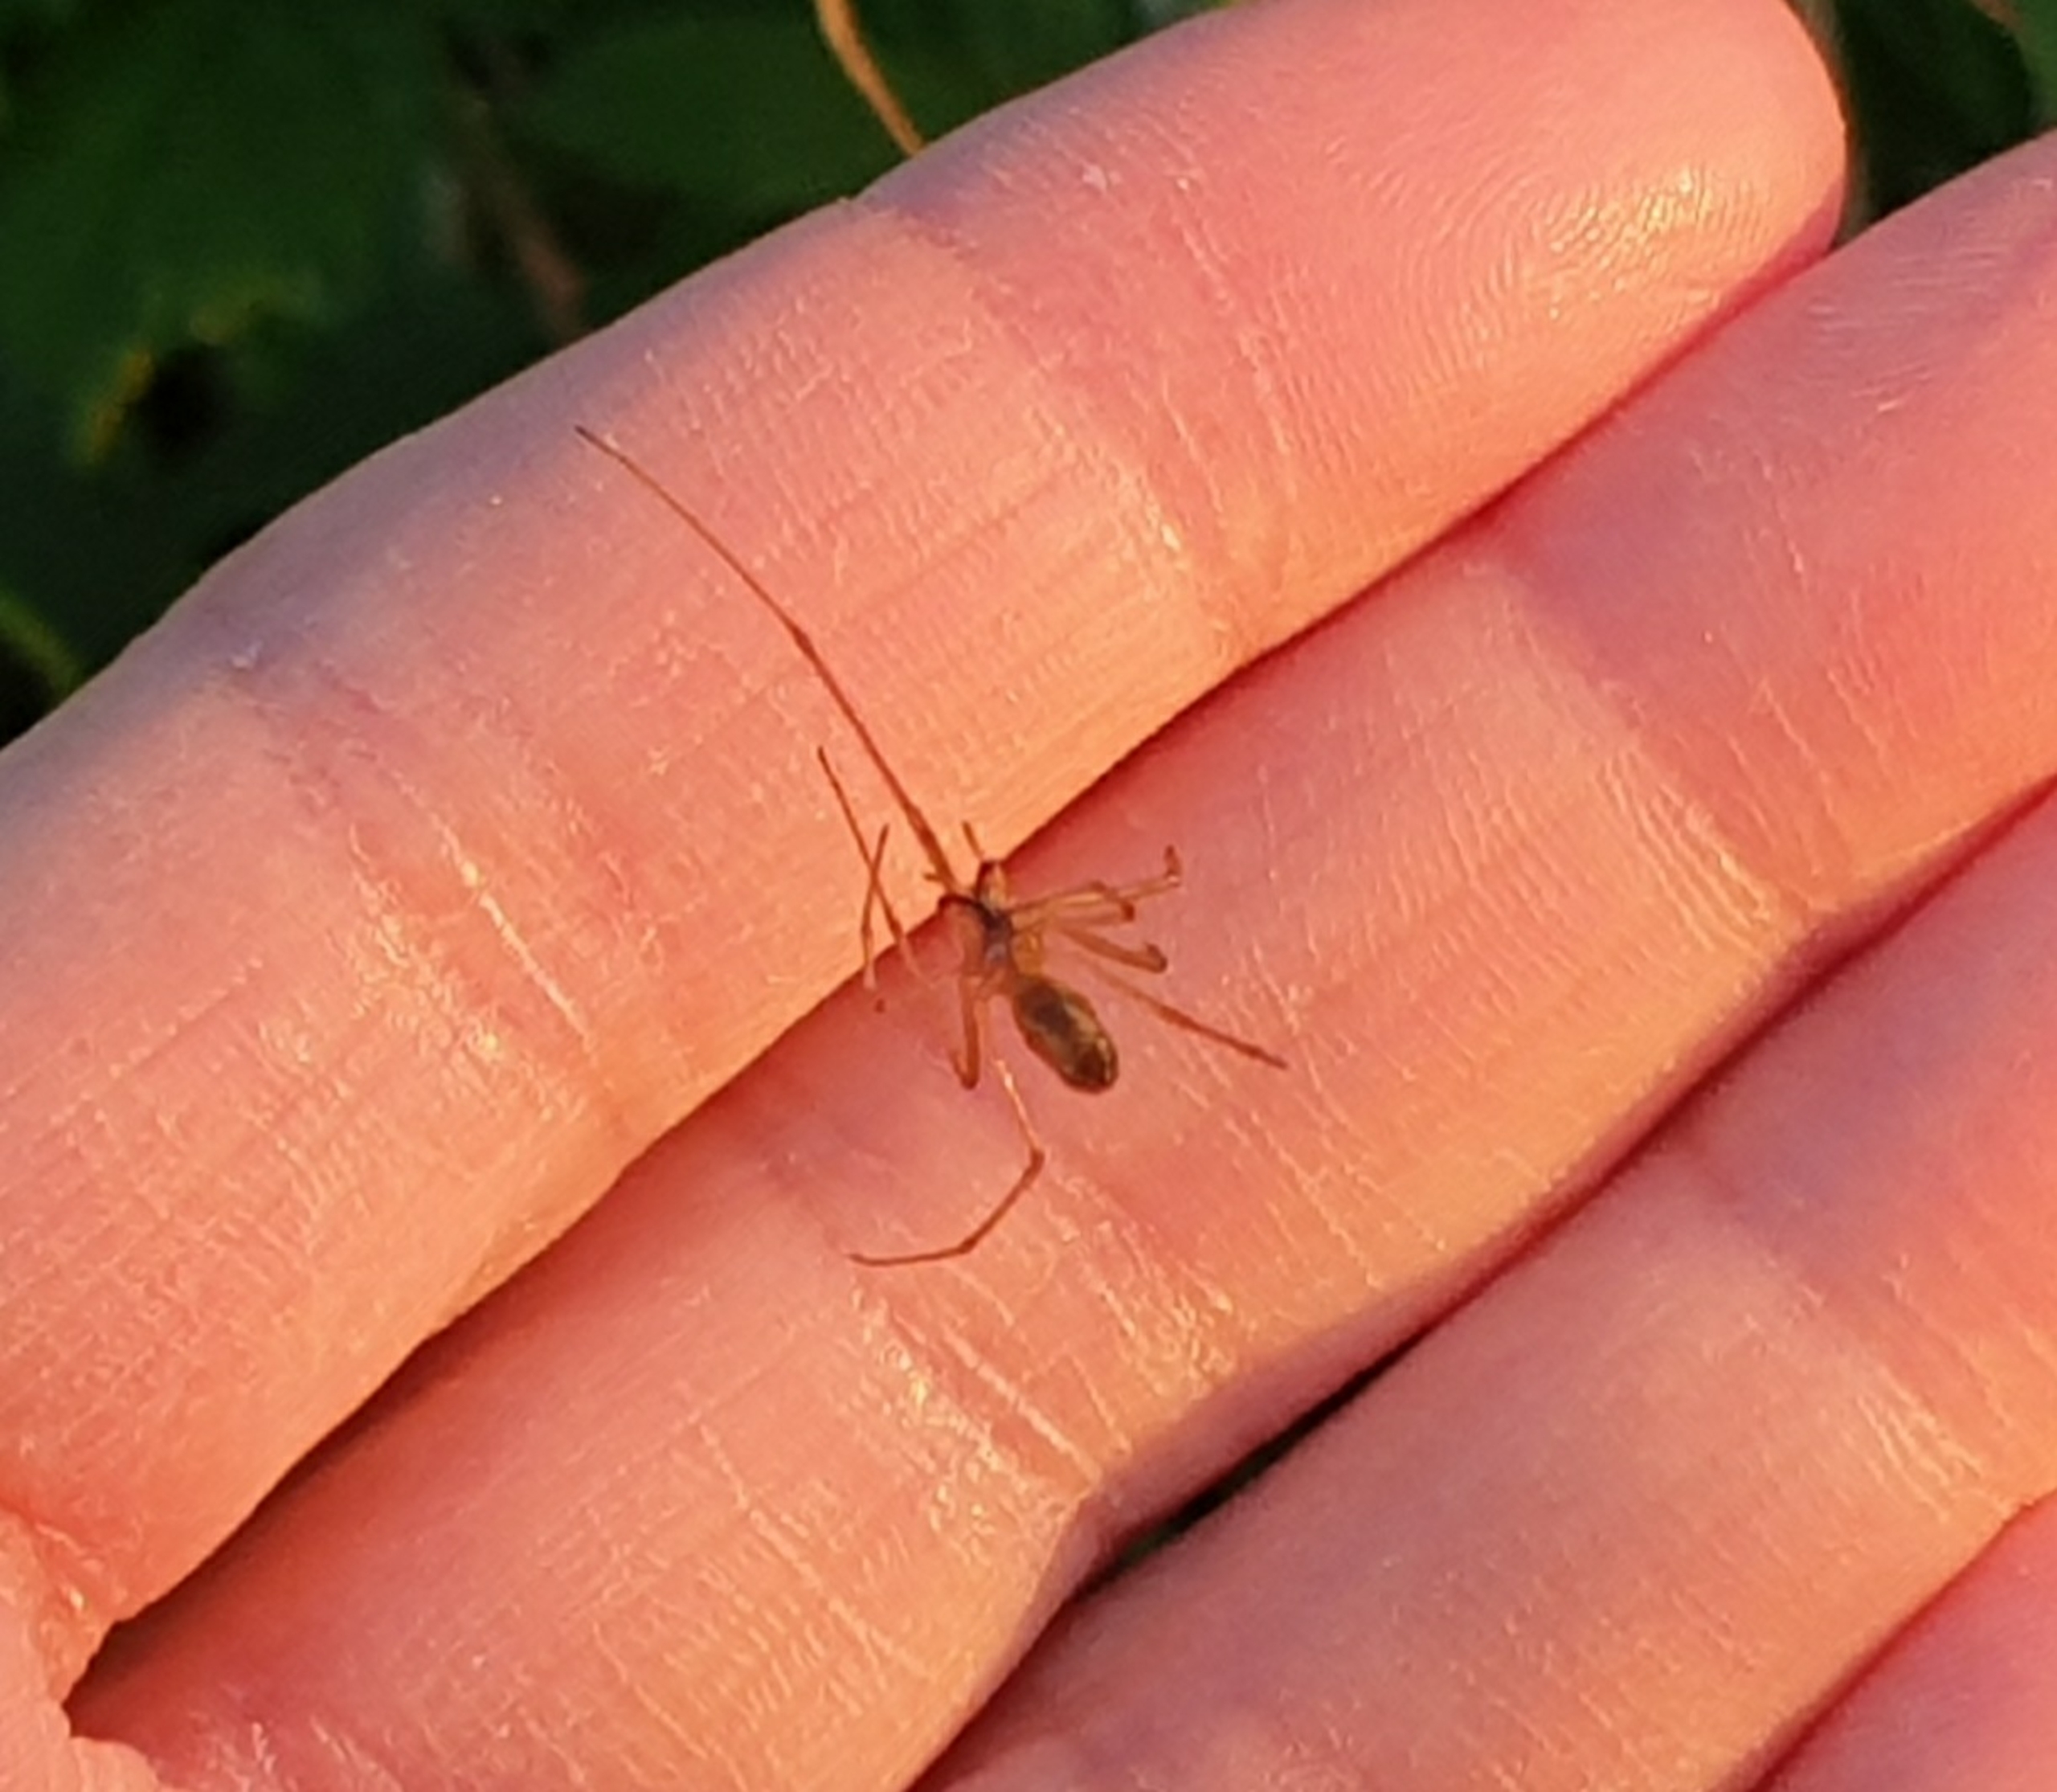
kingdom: Animalia
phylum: Arthropoda
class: Arachnida
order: Araneae
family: Tetragnathidae
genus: Tetragnatha
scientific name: Tetragnatha
